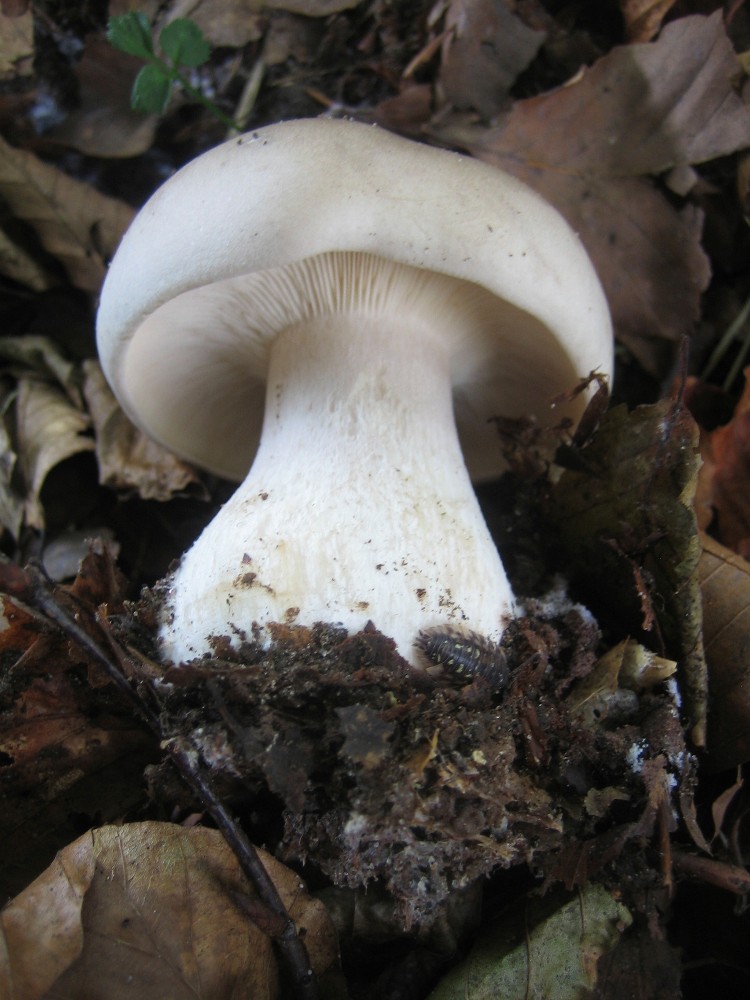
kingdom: Fungi
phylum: Basidiomycota
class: Agaricomycetes
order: Agaricales
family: Tricholomataceae
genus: Clitocybe
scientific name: Clitocybe nebularis
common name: tåge-tragthat
